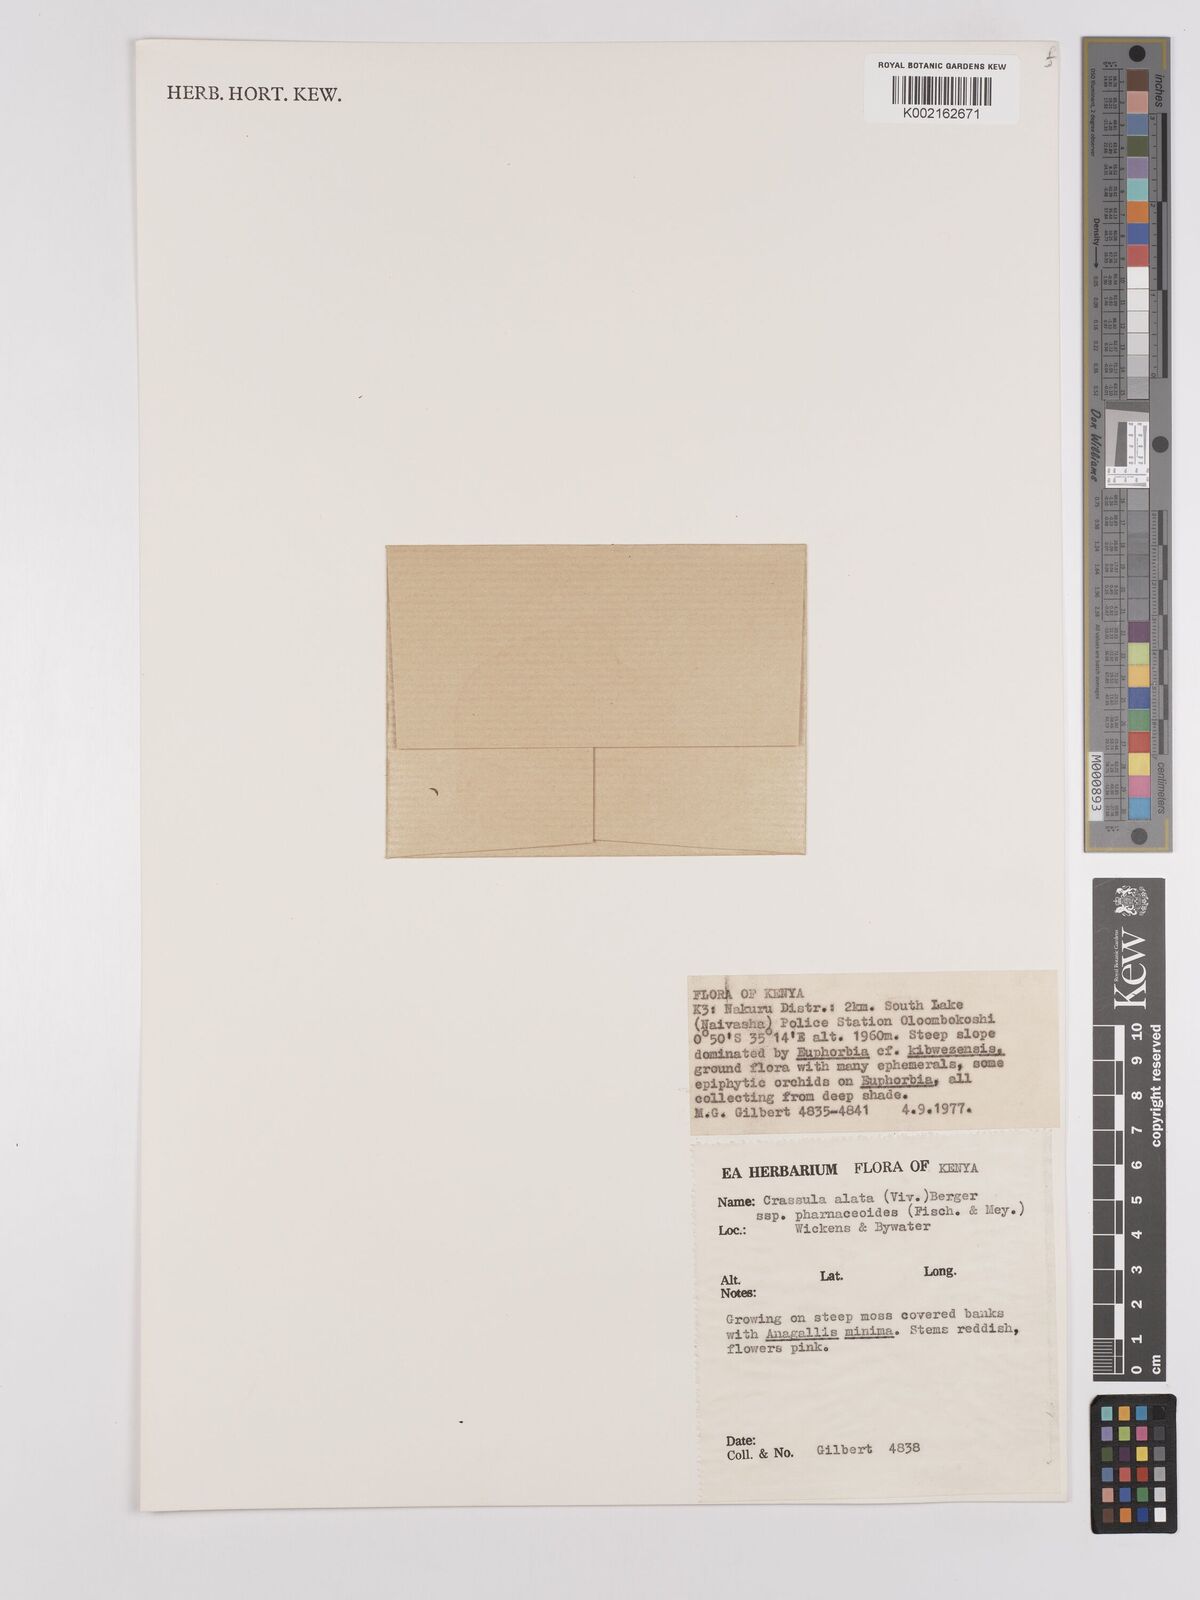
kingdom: Plantae
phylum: Tracheophyta
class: Magnoliopsida
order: Saxifragales
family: Crassulaceae
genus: Crassula
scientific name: Crassula alata
